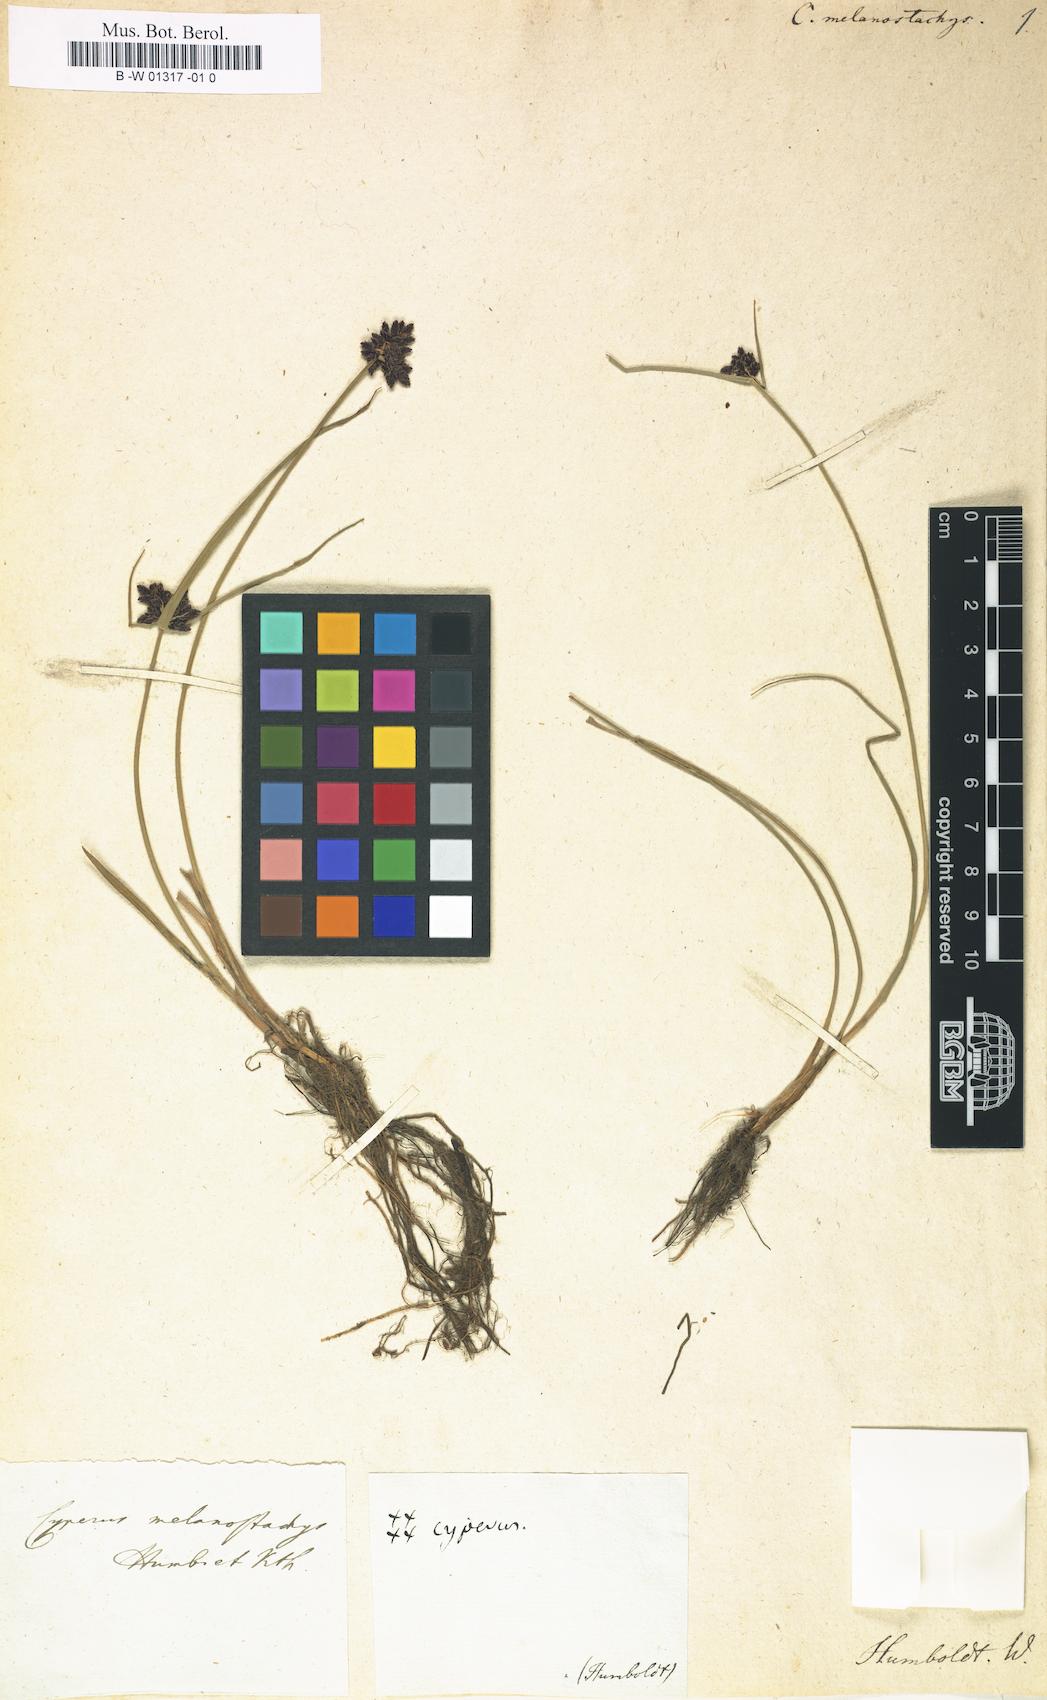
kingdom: Plantae
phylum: Tracheophyta
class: Liliopsida
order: Poales
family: Cyperaceae
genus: Cyperus
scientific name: Cyperus melanostachyus
